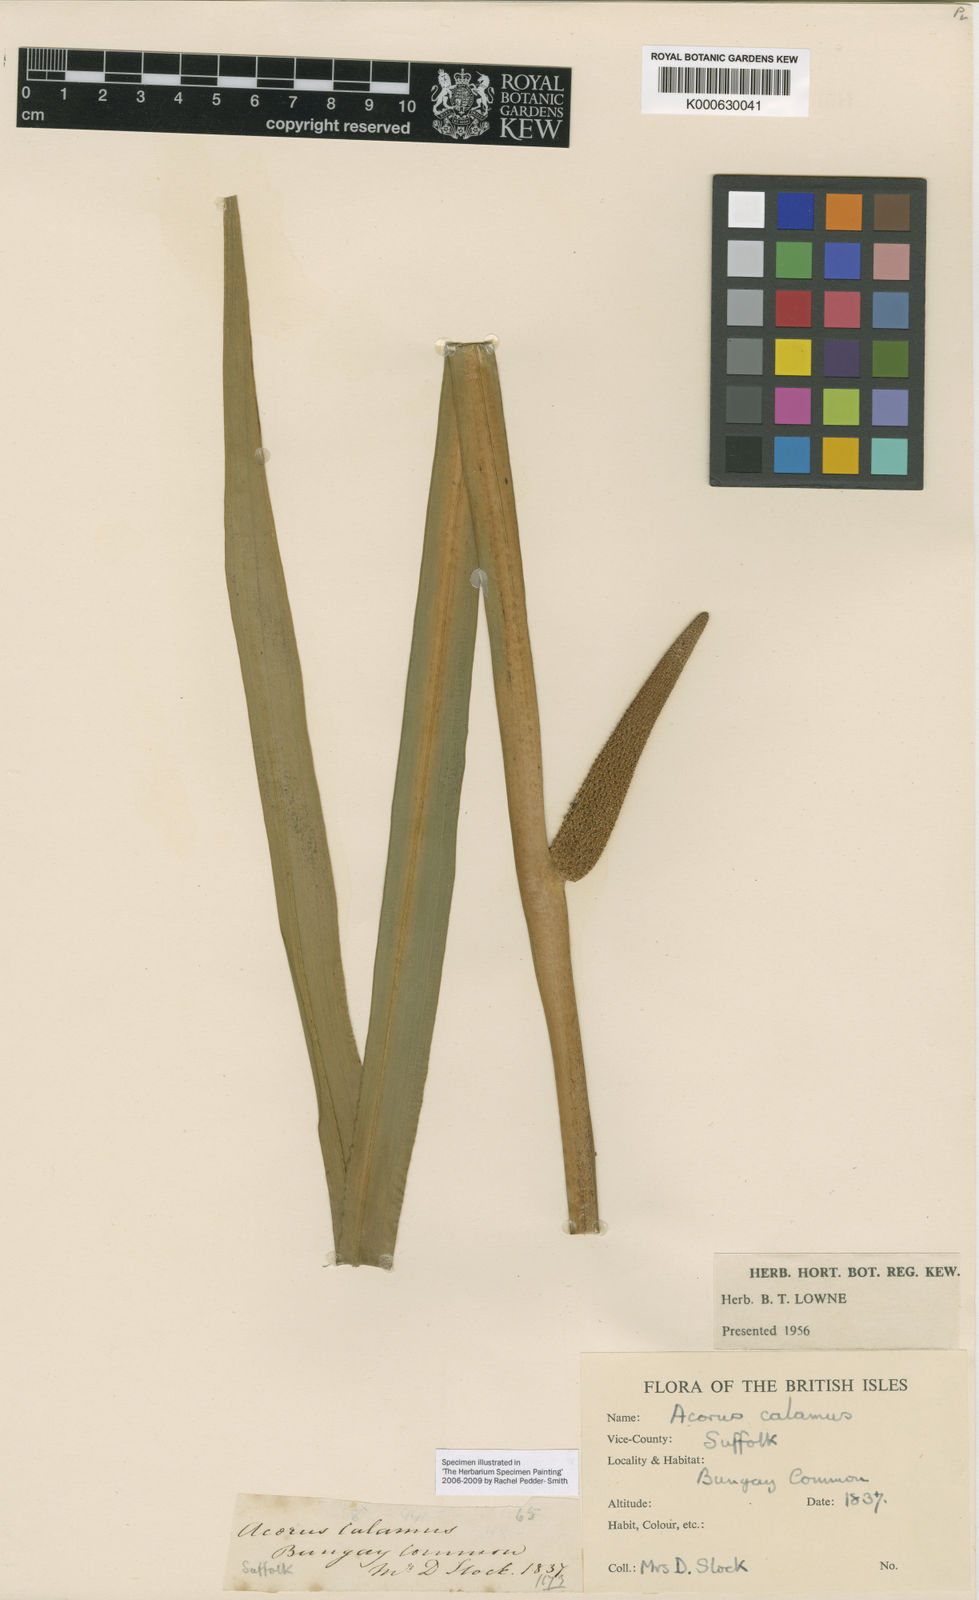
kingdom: Plantae
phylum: Tracheophyta
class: Liliopsida
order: Acorales
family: Acoraceae
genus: Acorus
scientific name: Acorus calamus
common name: Sweet-flag
